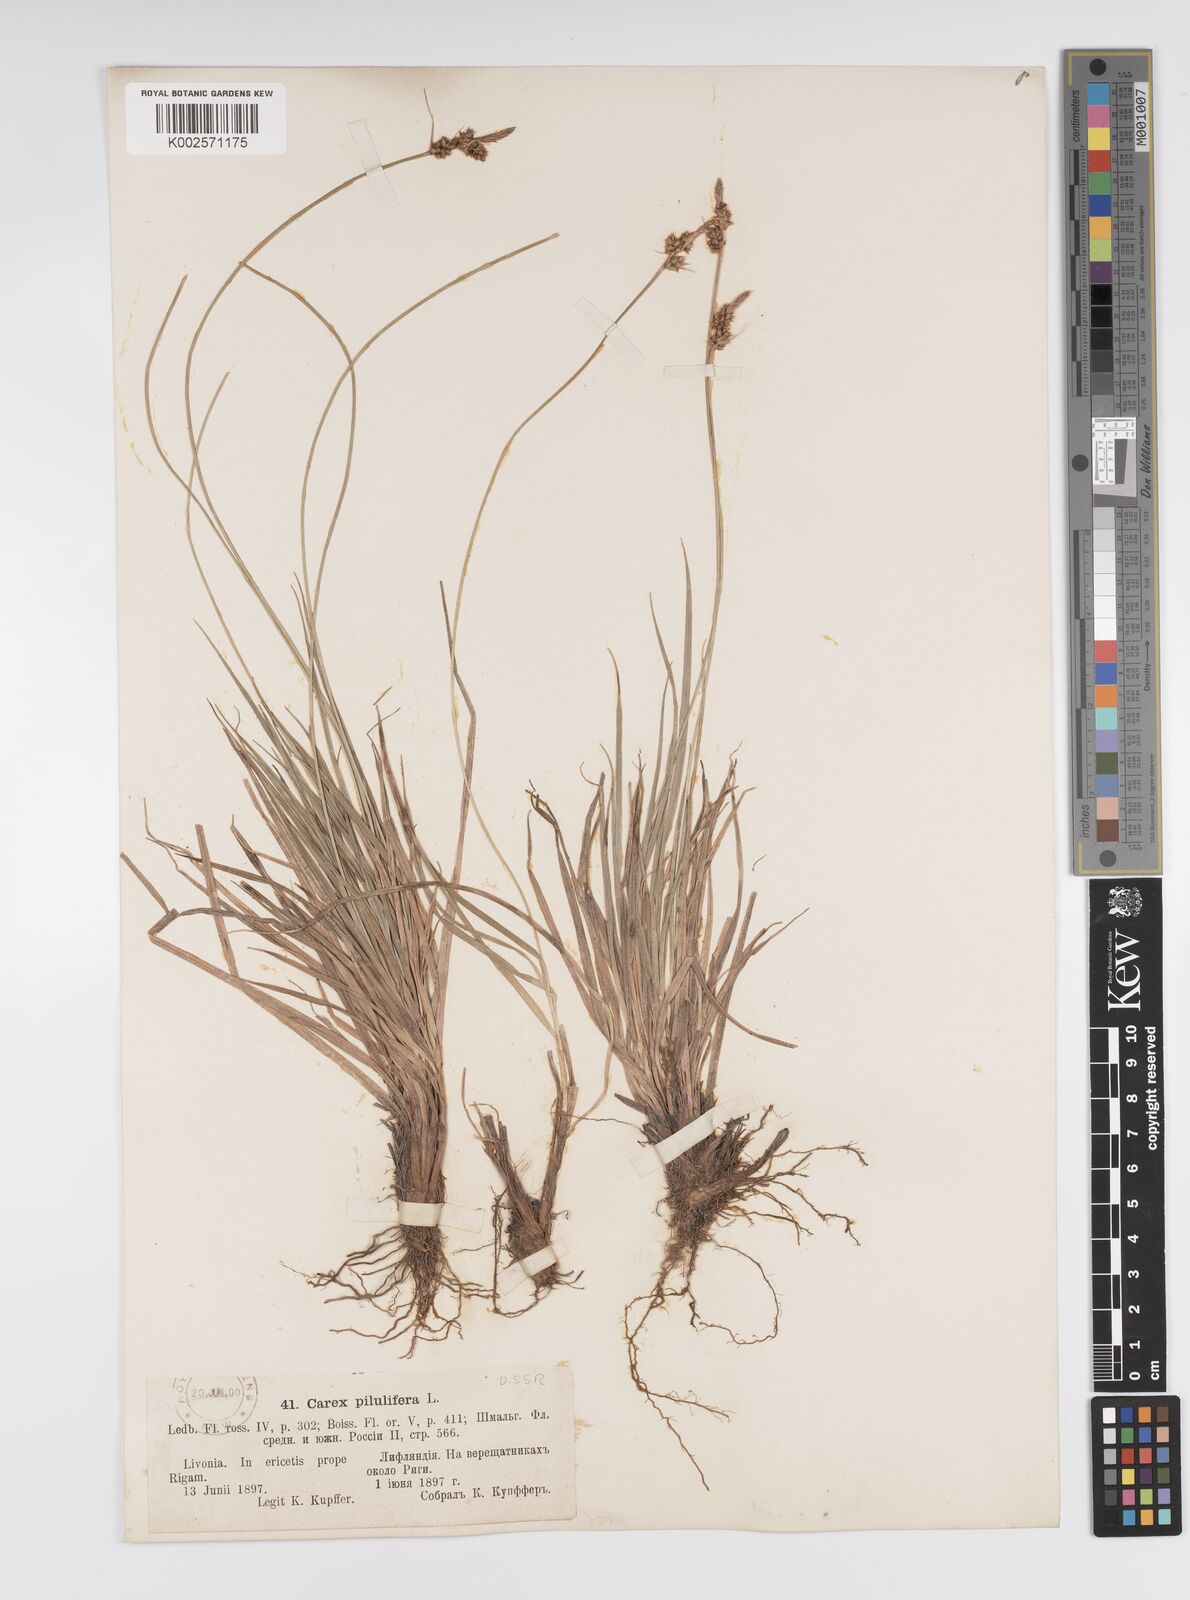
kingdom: Plantae
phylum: Tracheophyta
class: Liliopsida
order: Poales
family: Cyperaceae
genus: Carex
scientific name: Carex pilulifera
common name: Pill sedge
